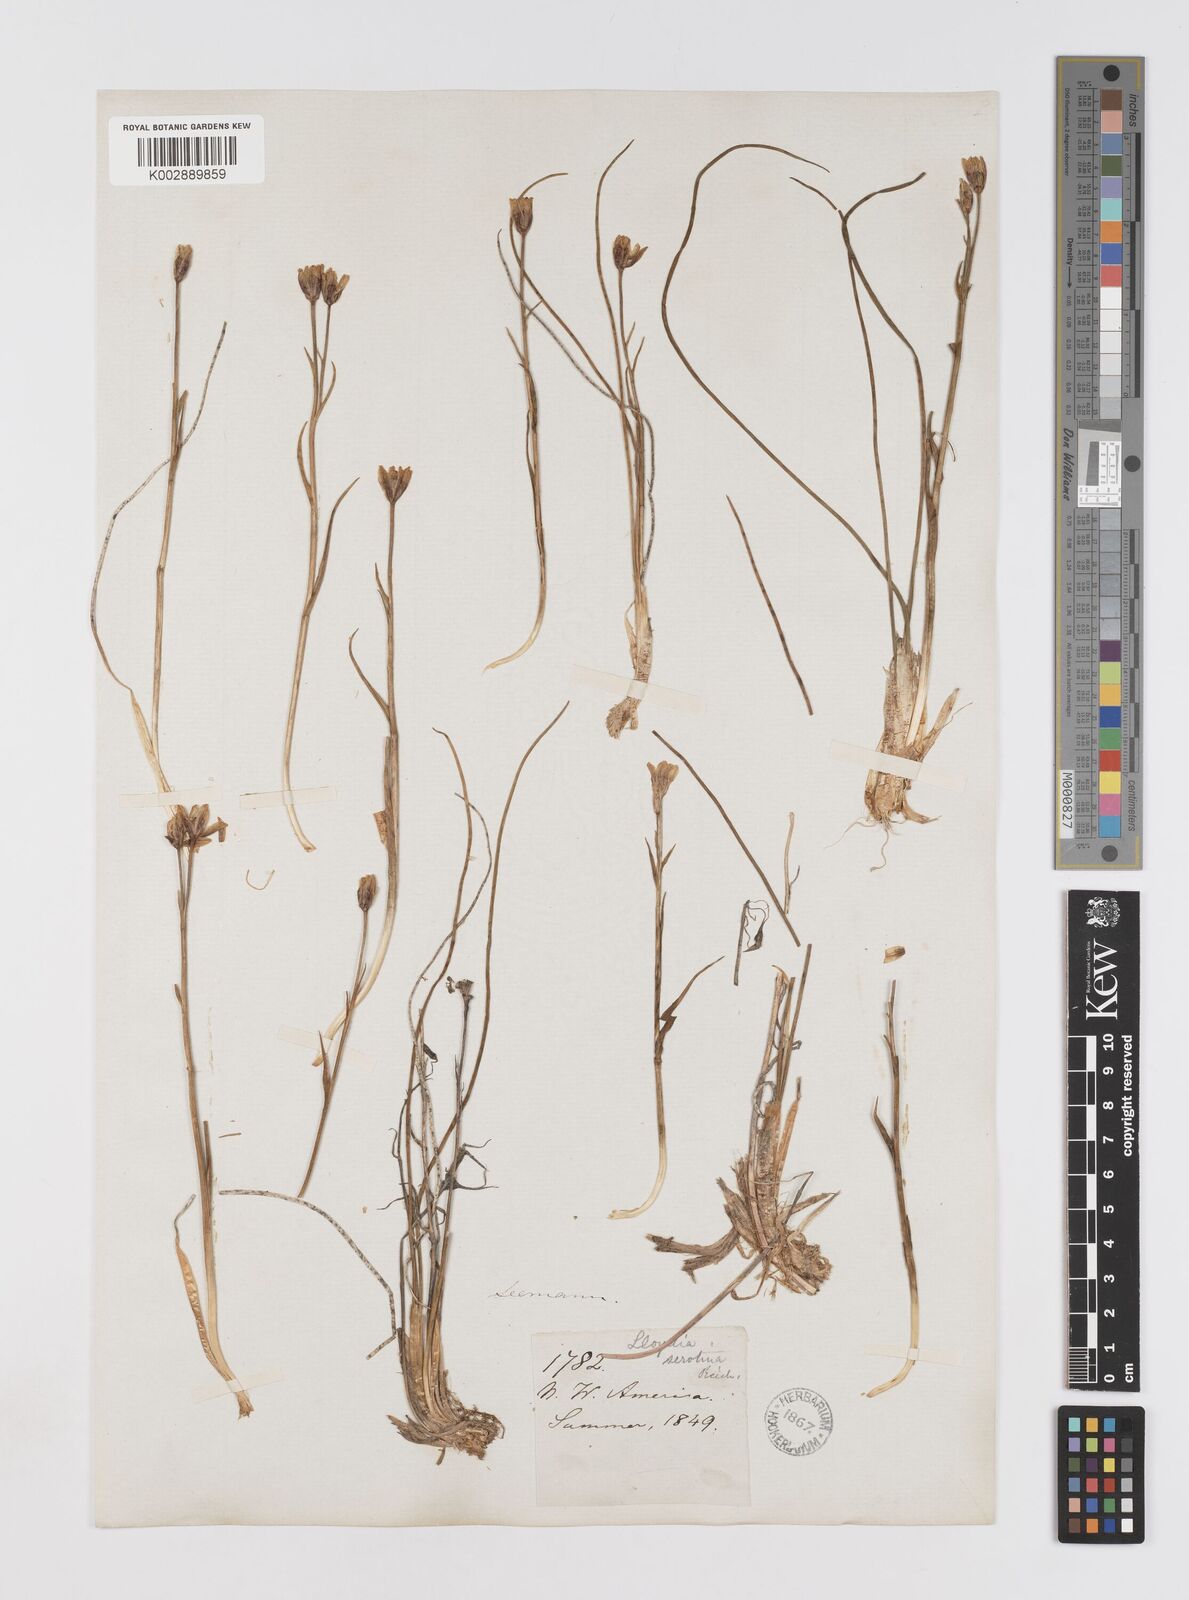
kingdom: Plantae
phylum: Tracheophyta
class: Liliopsida
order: Liliales
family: Liliaceae
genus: Gagea
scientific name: Gagea serotina
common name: Snowdon lily
